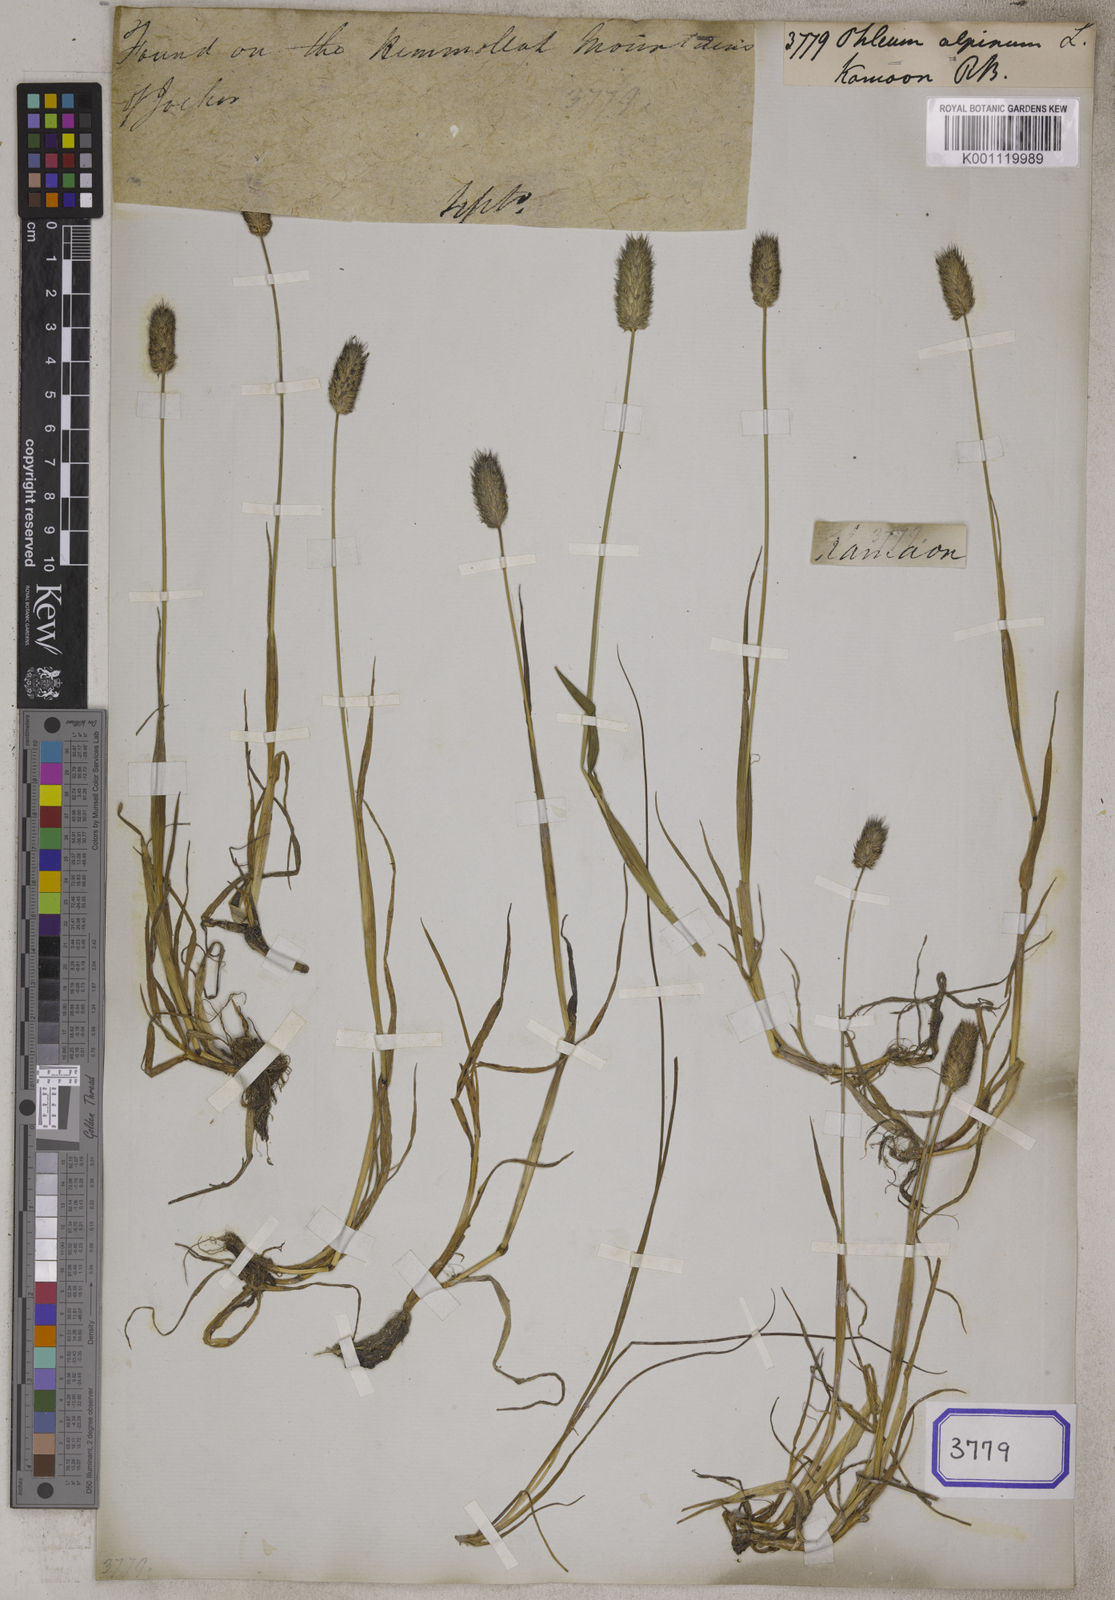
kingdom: Plantae
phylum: Tracheophyta
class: Liliopsida
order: Poales
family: Poaceae
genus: Phleum
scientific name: Phleum alpinum
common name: Alpine cat's-tail
